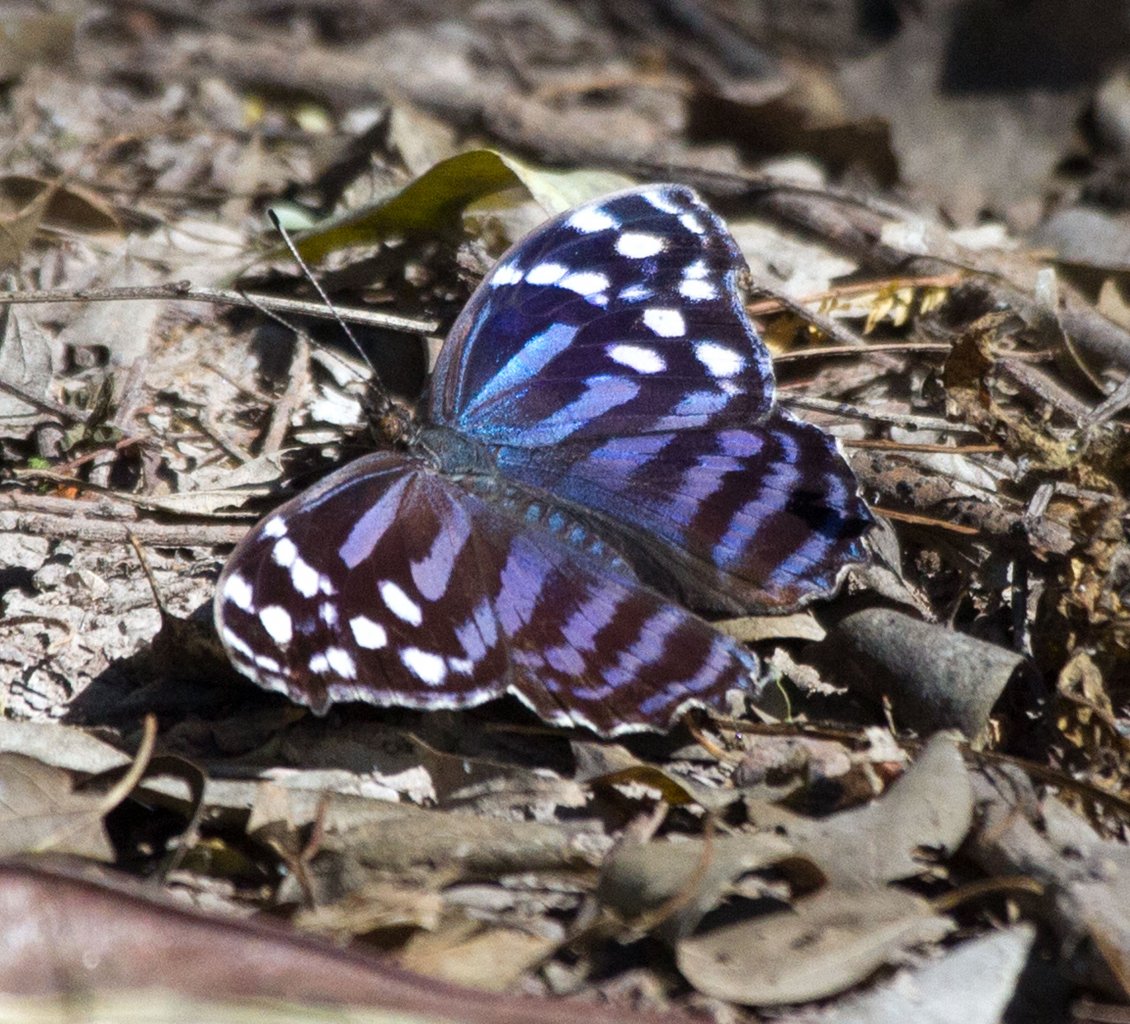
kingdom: Animalia
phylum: Arthropoda
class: Insecta
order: Lepidoptera
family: Nymphalidae
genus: Myscelia
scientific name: Myscelia ethusa
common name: Mexican Bluewing
